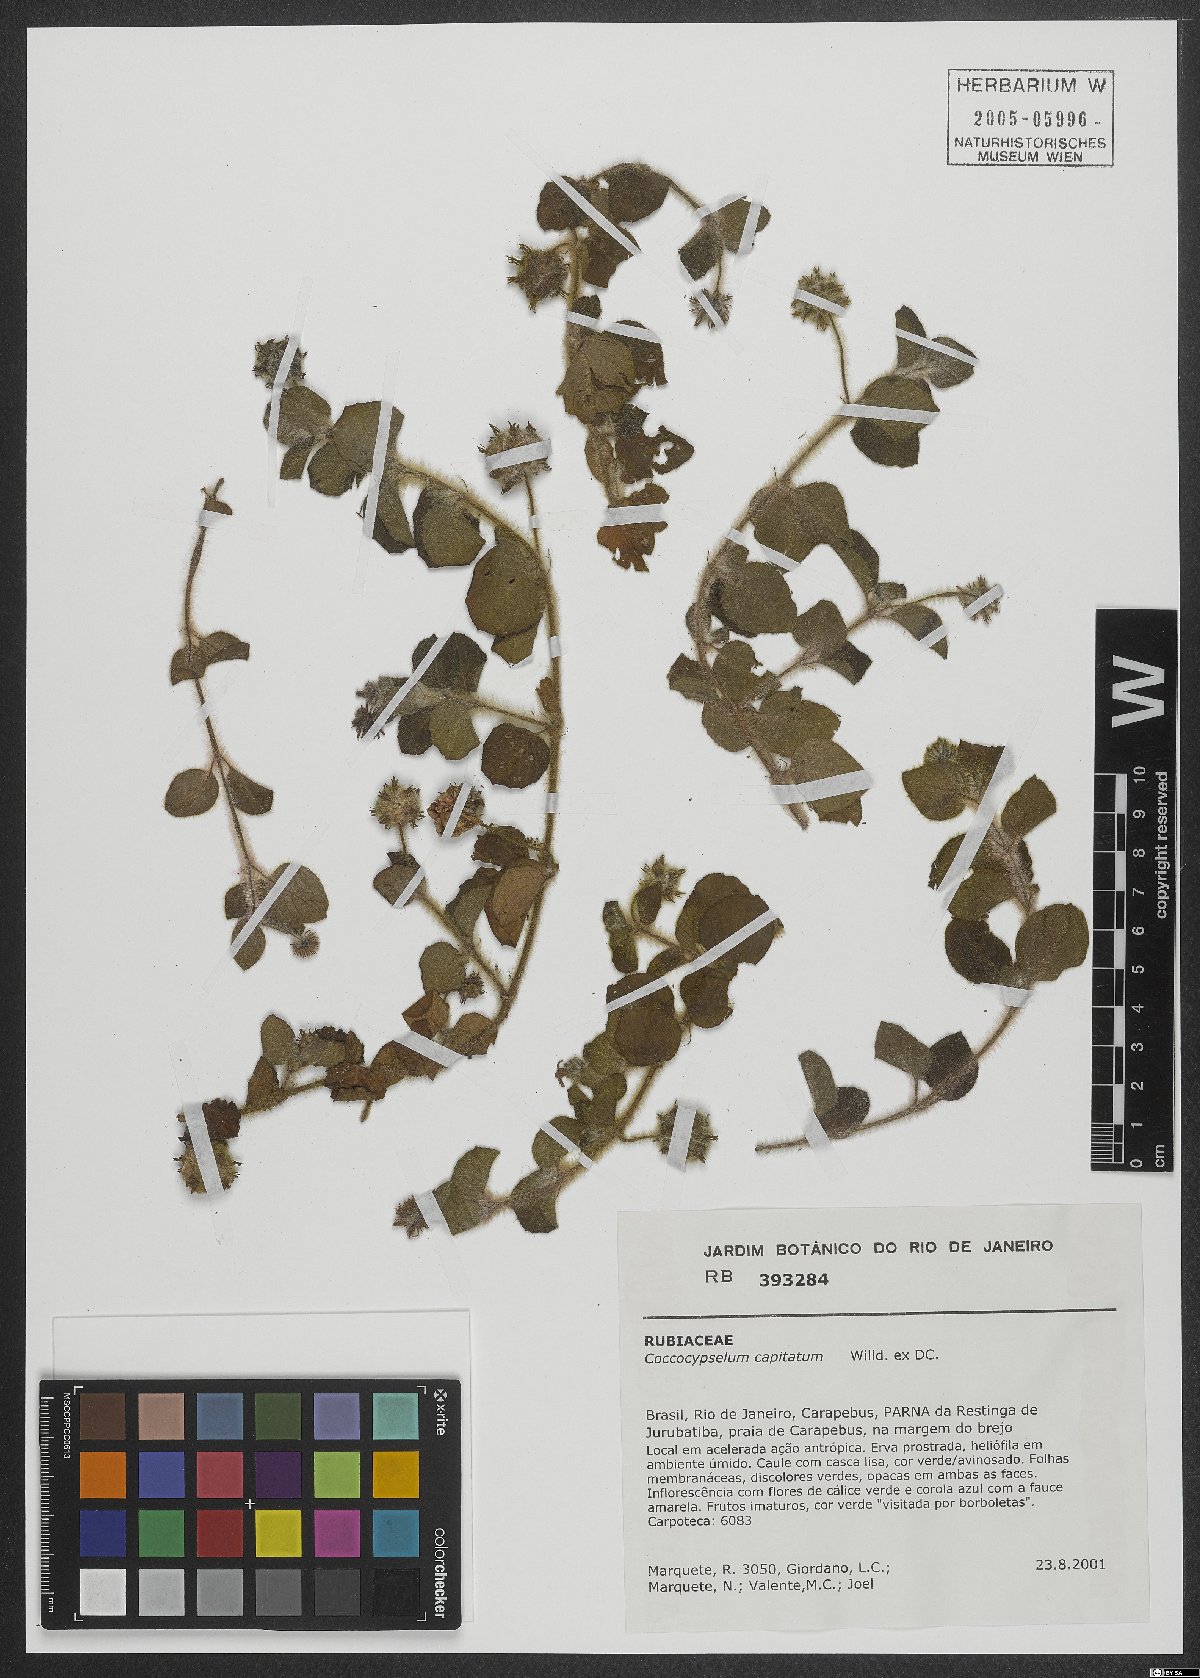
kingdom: Plantae
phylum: Tracheophyta
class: Magnoliopsida
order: Gentianales
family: Rubiaceae
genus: Coccocypselum
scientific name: Coccocypselum capitatum
